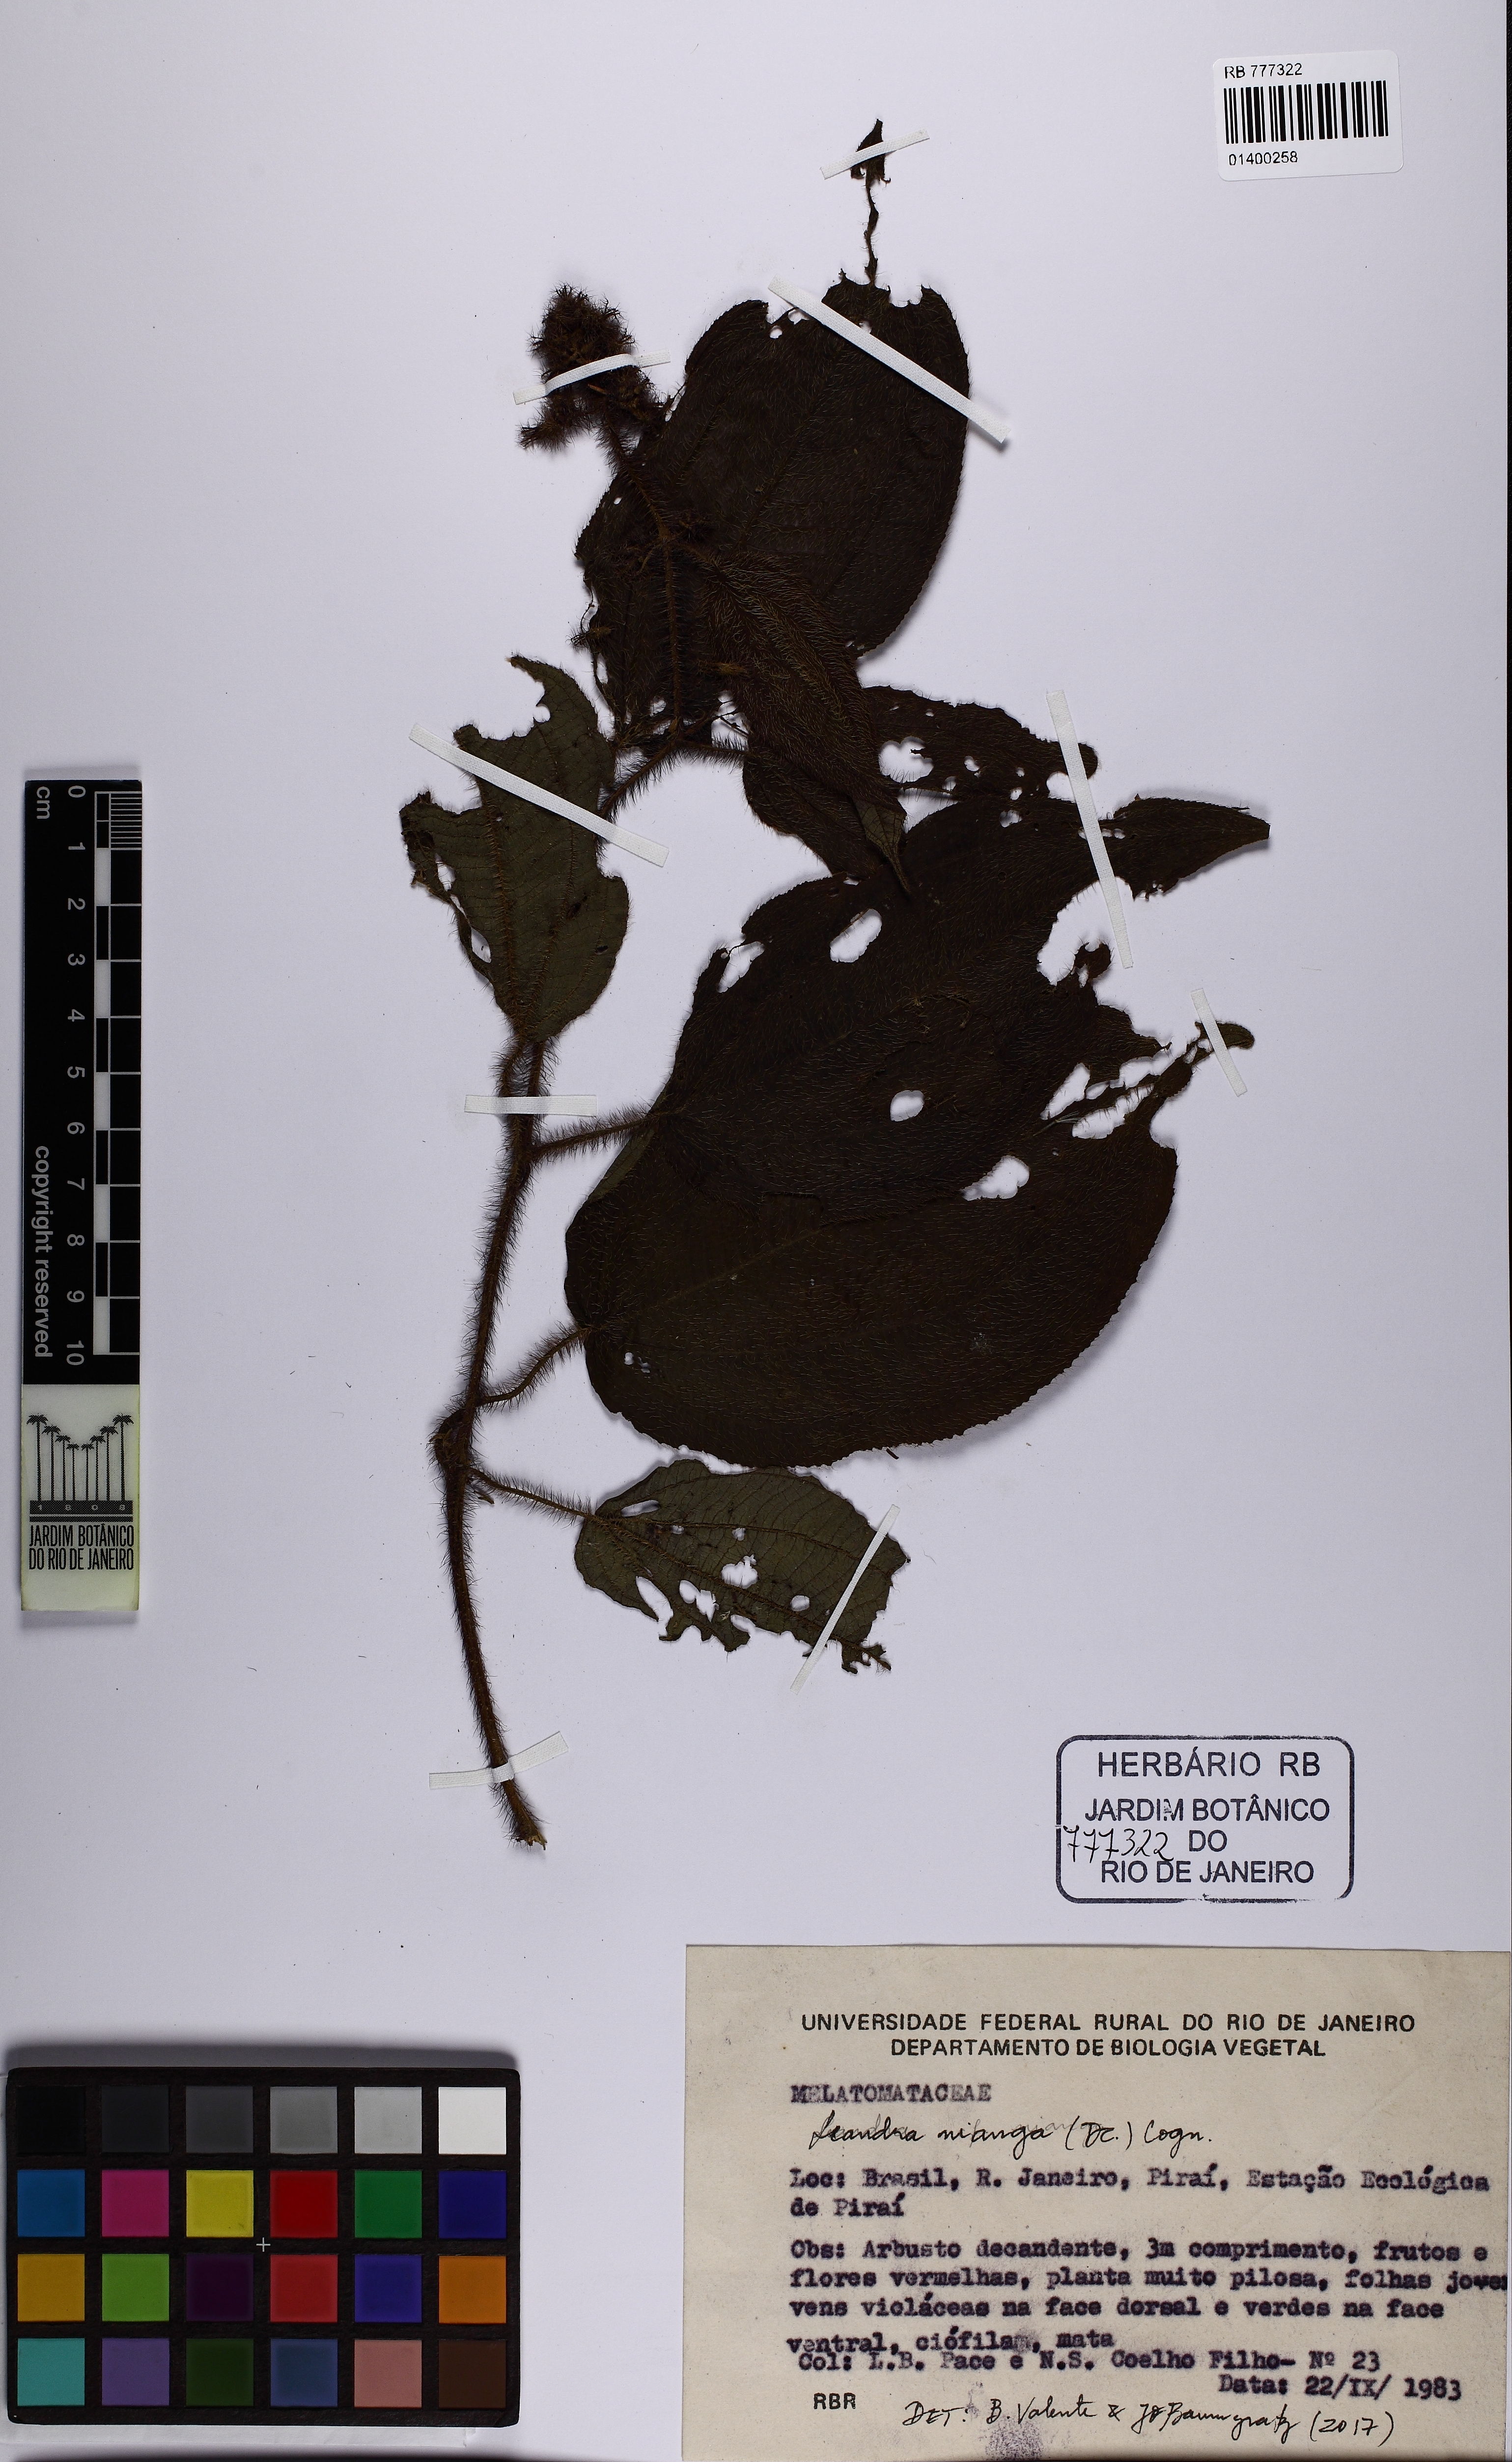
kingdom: Plantae
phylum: Tracheophyta
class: Magnoliopsida
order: Myrtales
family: Melastomataceae
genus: Miconia
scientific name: Miconia nianga
